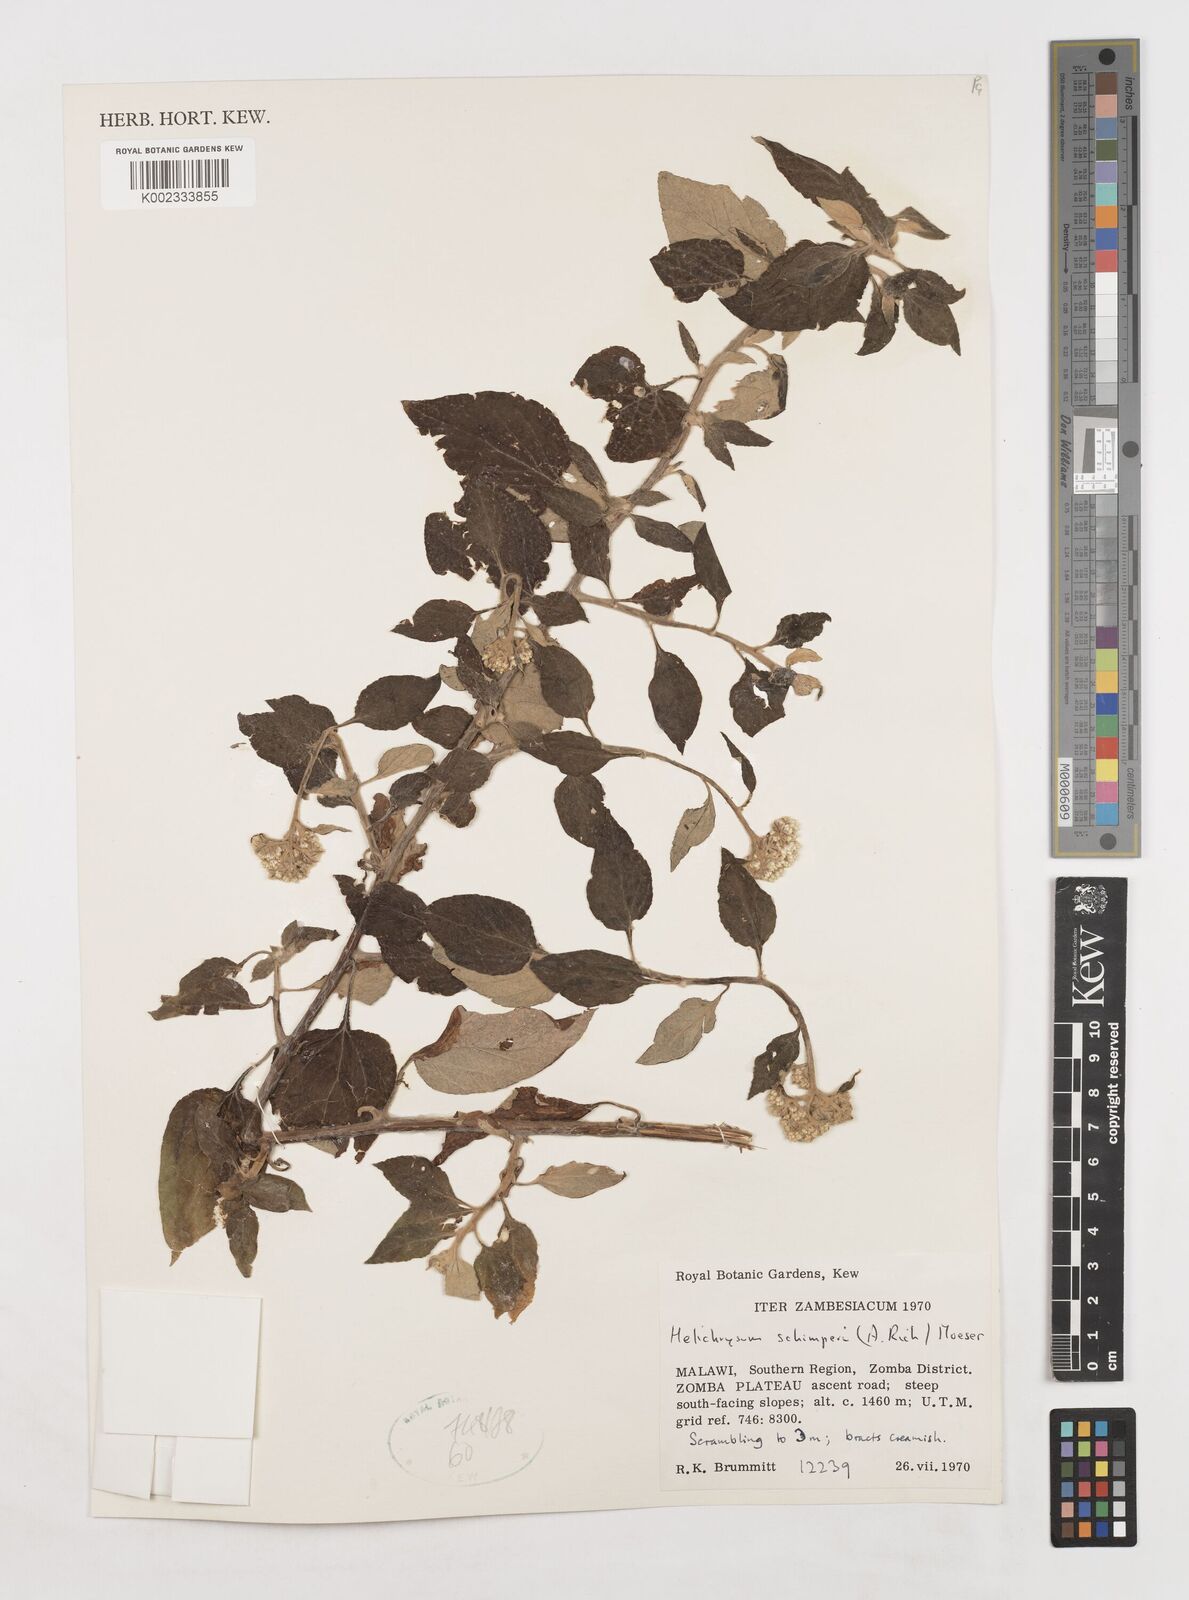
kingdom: Plantae
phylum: Tracheophyta
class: Magnoliopsida
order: Asterales
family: Asteraceae
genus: Helichrysum
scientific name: Helichrysum schimperi
